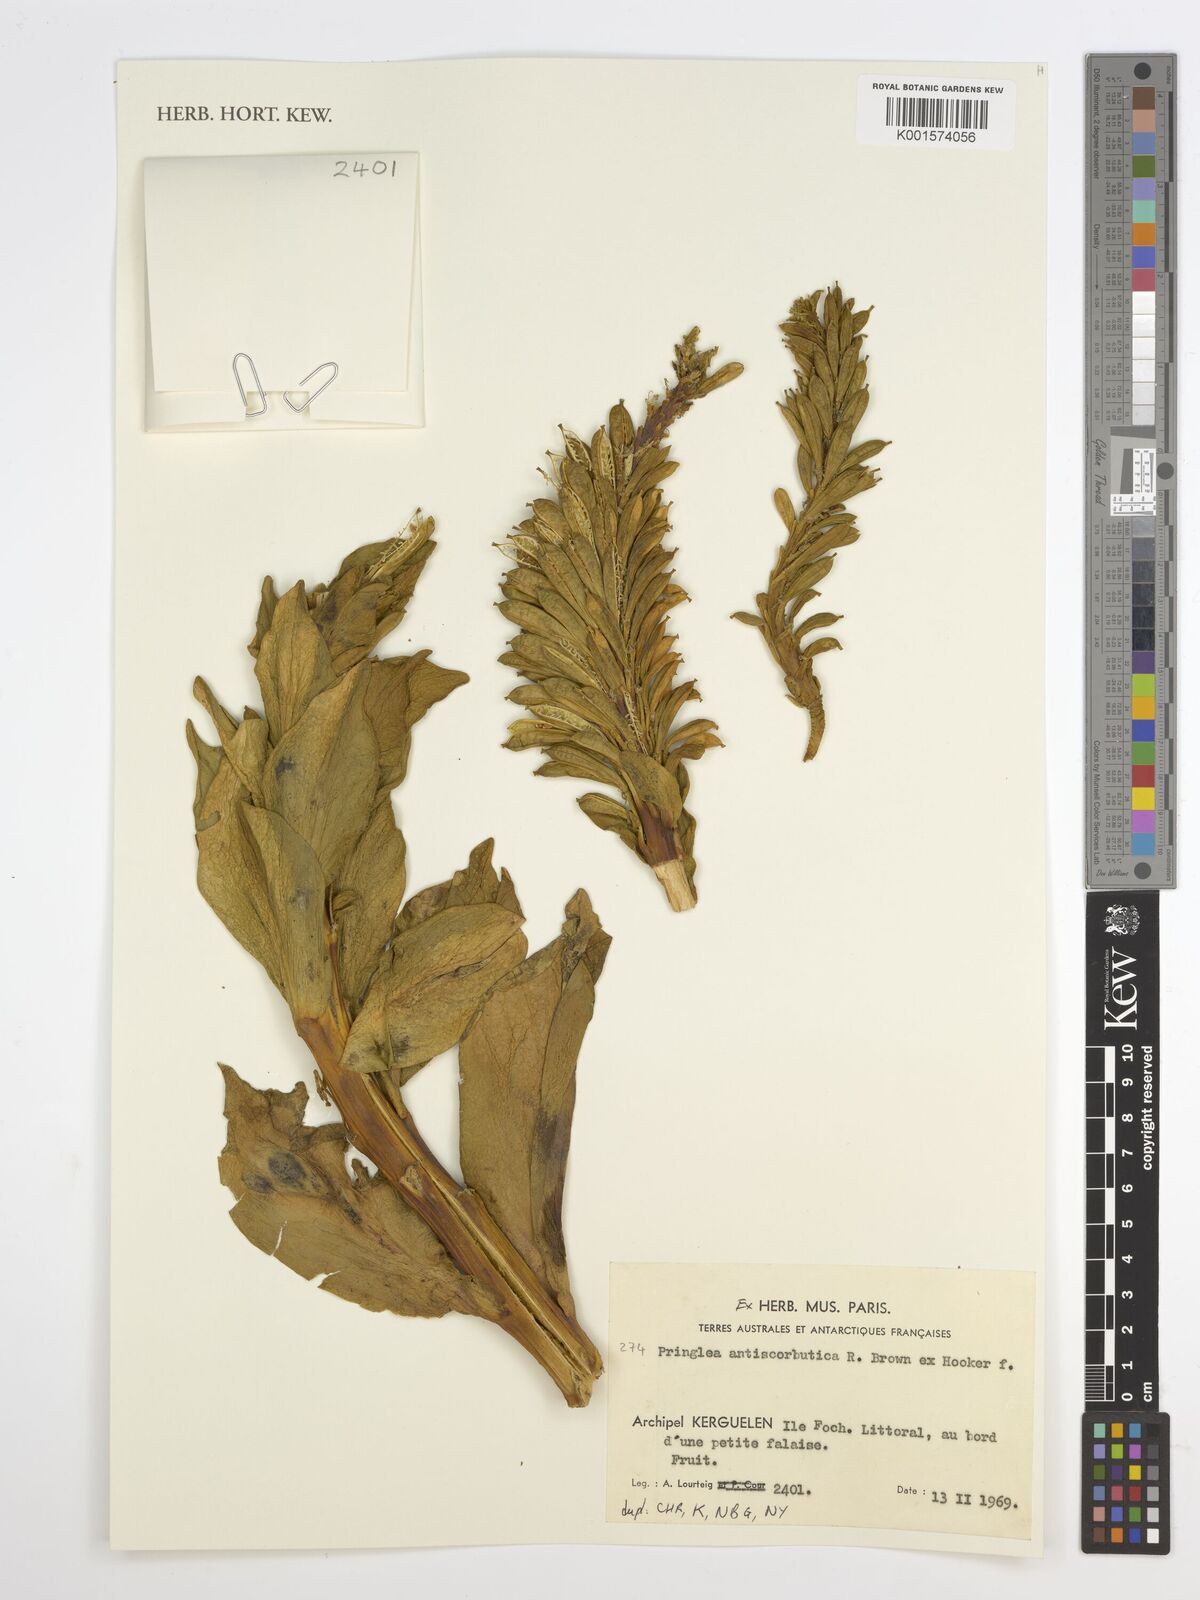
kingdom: Plantae
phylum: Tracheophyta
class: Magnoliopsida
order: Brassicales
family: Brassicaceae
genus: Pringlea
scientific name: Pringlea antiscorbutica
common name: Kerguelen-cabbage
